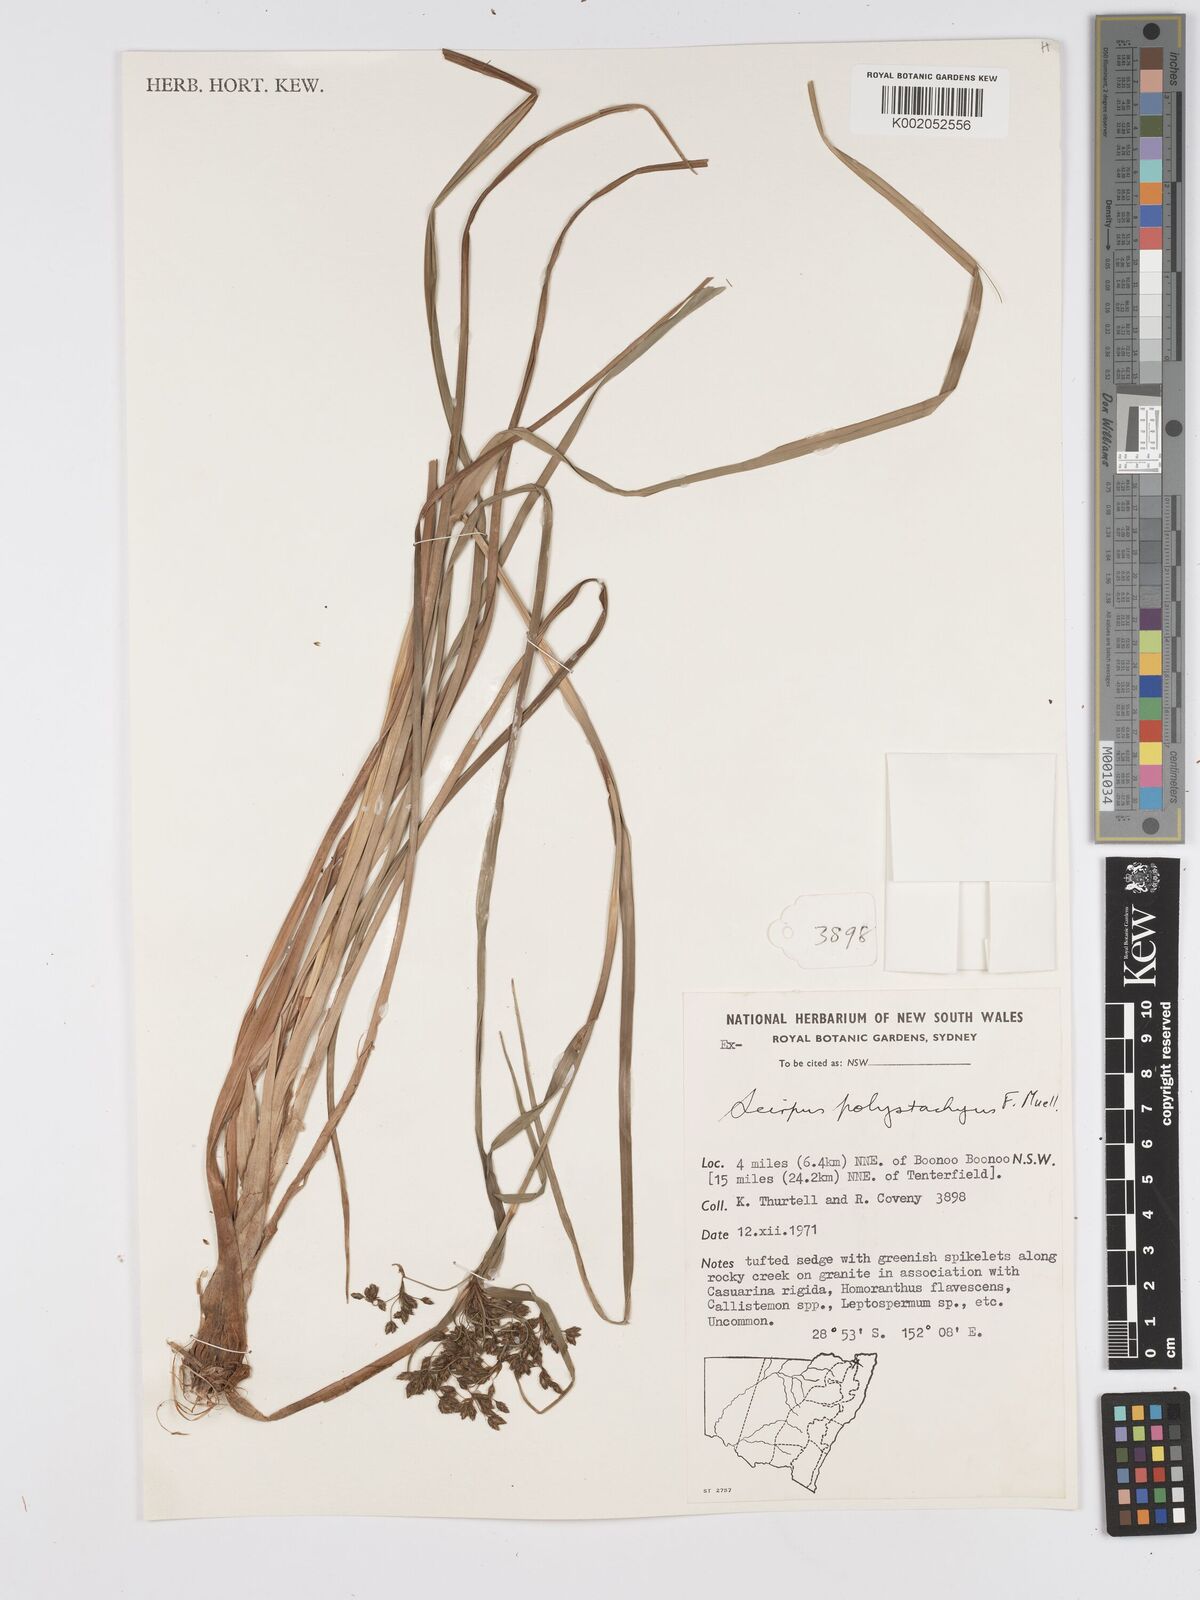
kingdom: Plantae
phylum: Tracheophyta
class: Liliopsida
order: Poales
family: Cyperaceae
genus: Scirpus
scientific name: Scirpus polystachyus
